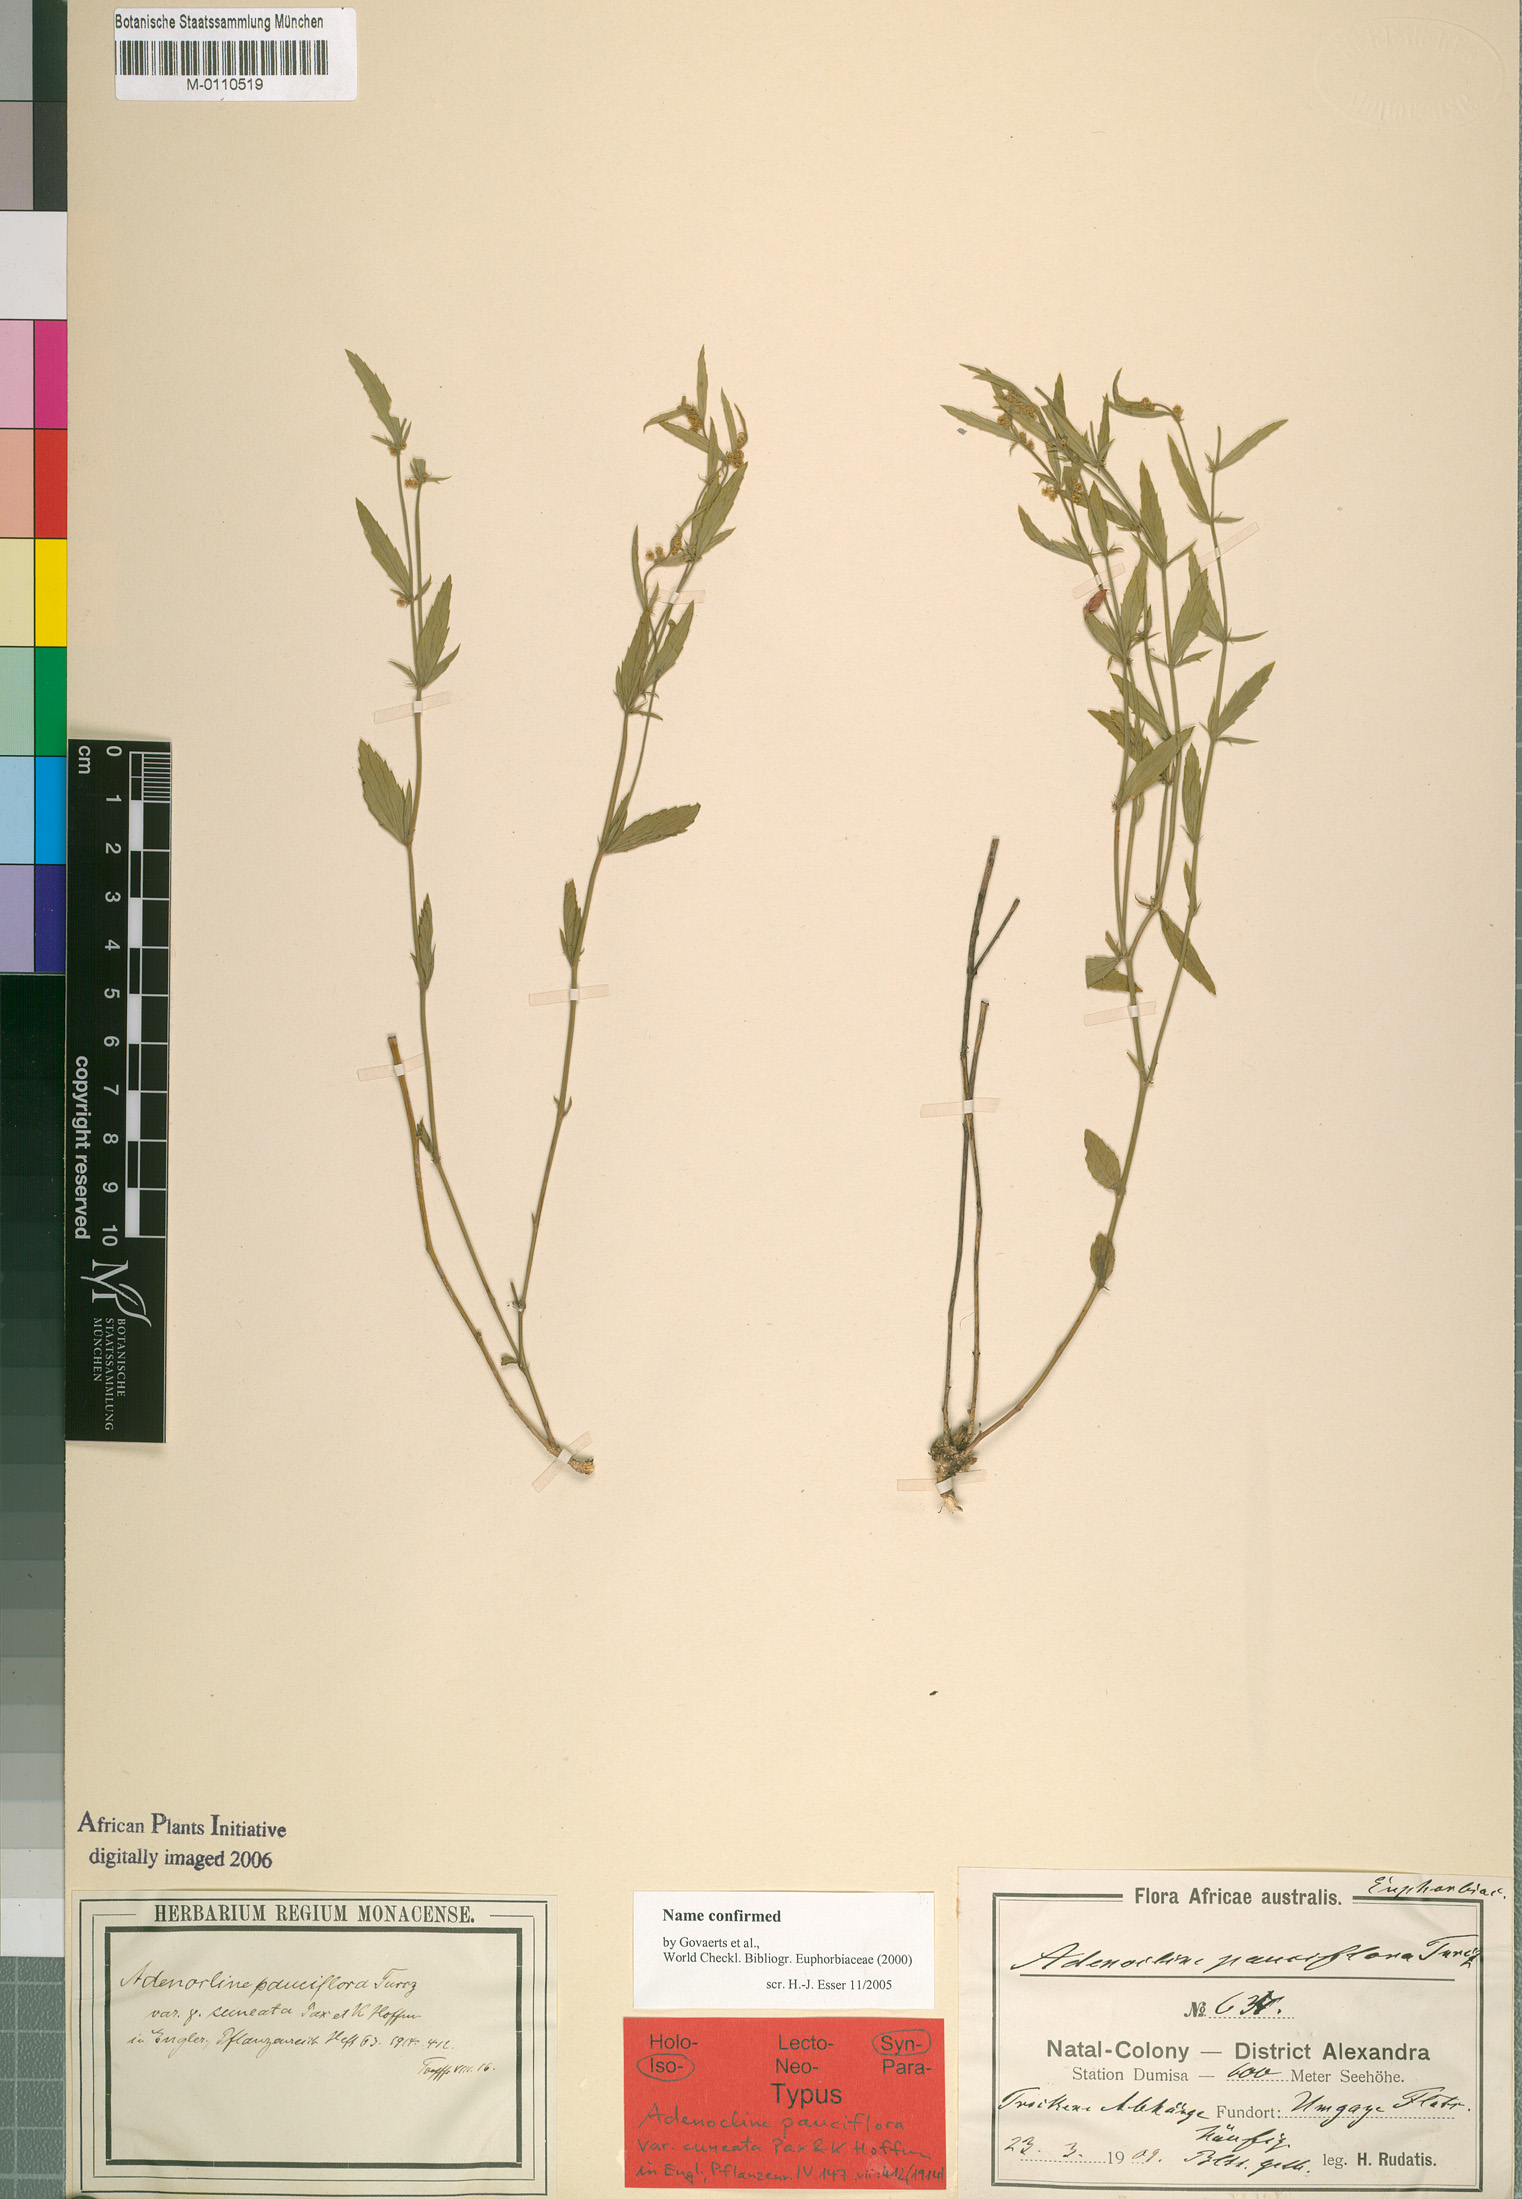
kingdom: Plantae
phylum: Tracheophyta
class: Magnoliopsida
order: Malpighiales
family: Euphorbiaceae
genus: Adenocline
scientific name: Adenocline pauciflora
